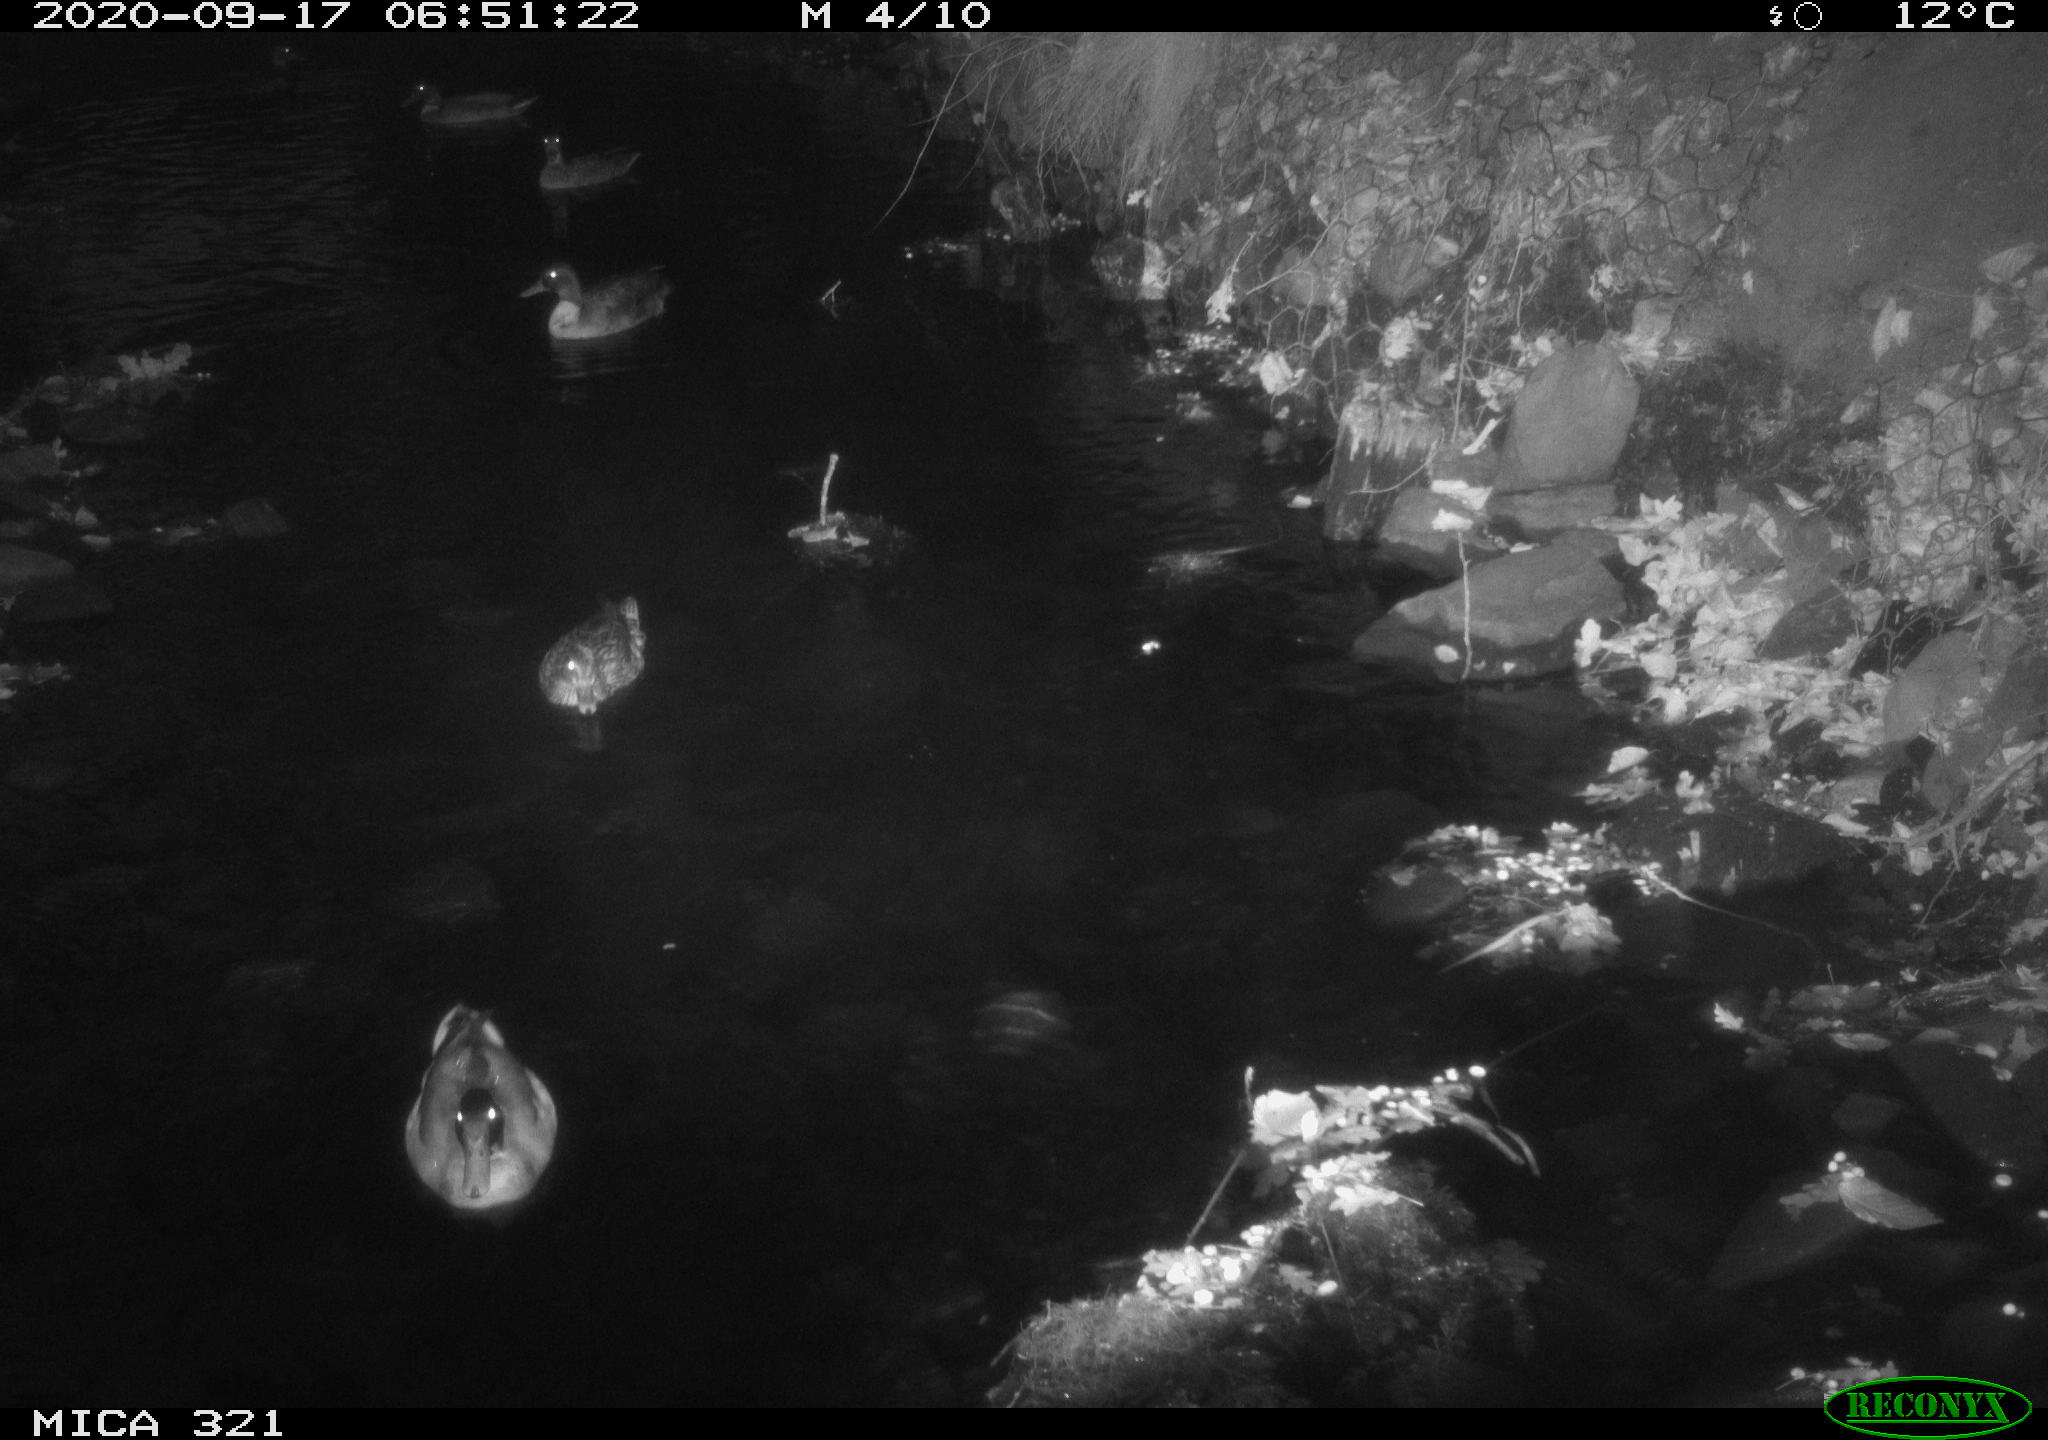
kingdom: Animalia
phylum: Chordata
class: Aves
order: Anseriformes
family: Anatidae
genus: Anas
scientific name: Anas platyrhynchos
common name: Mallard
